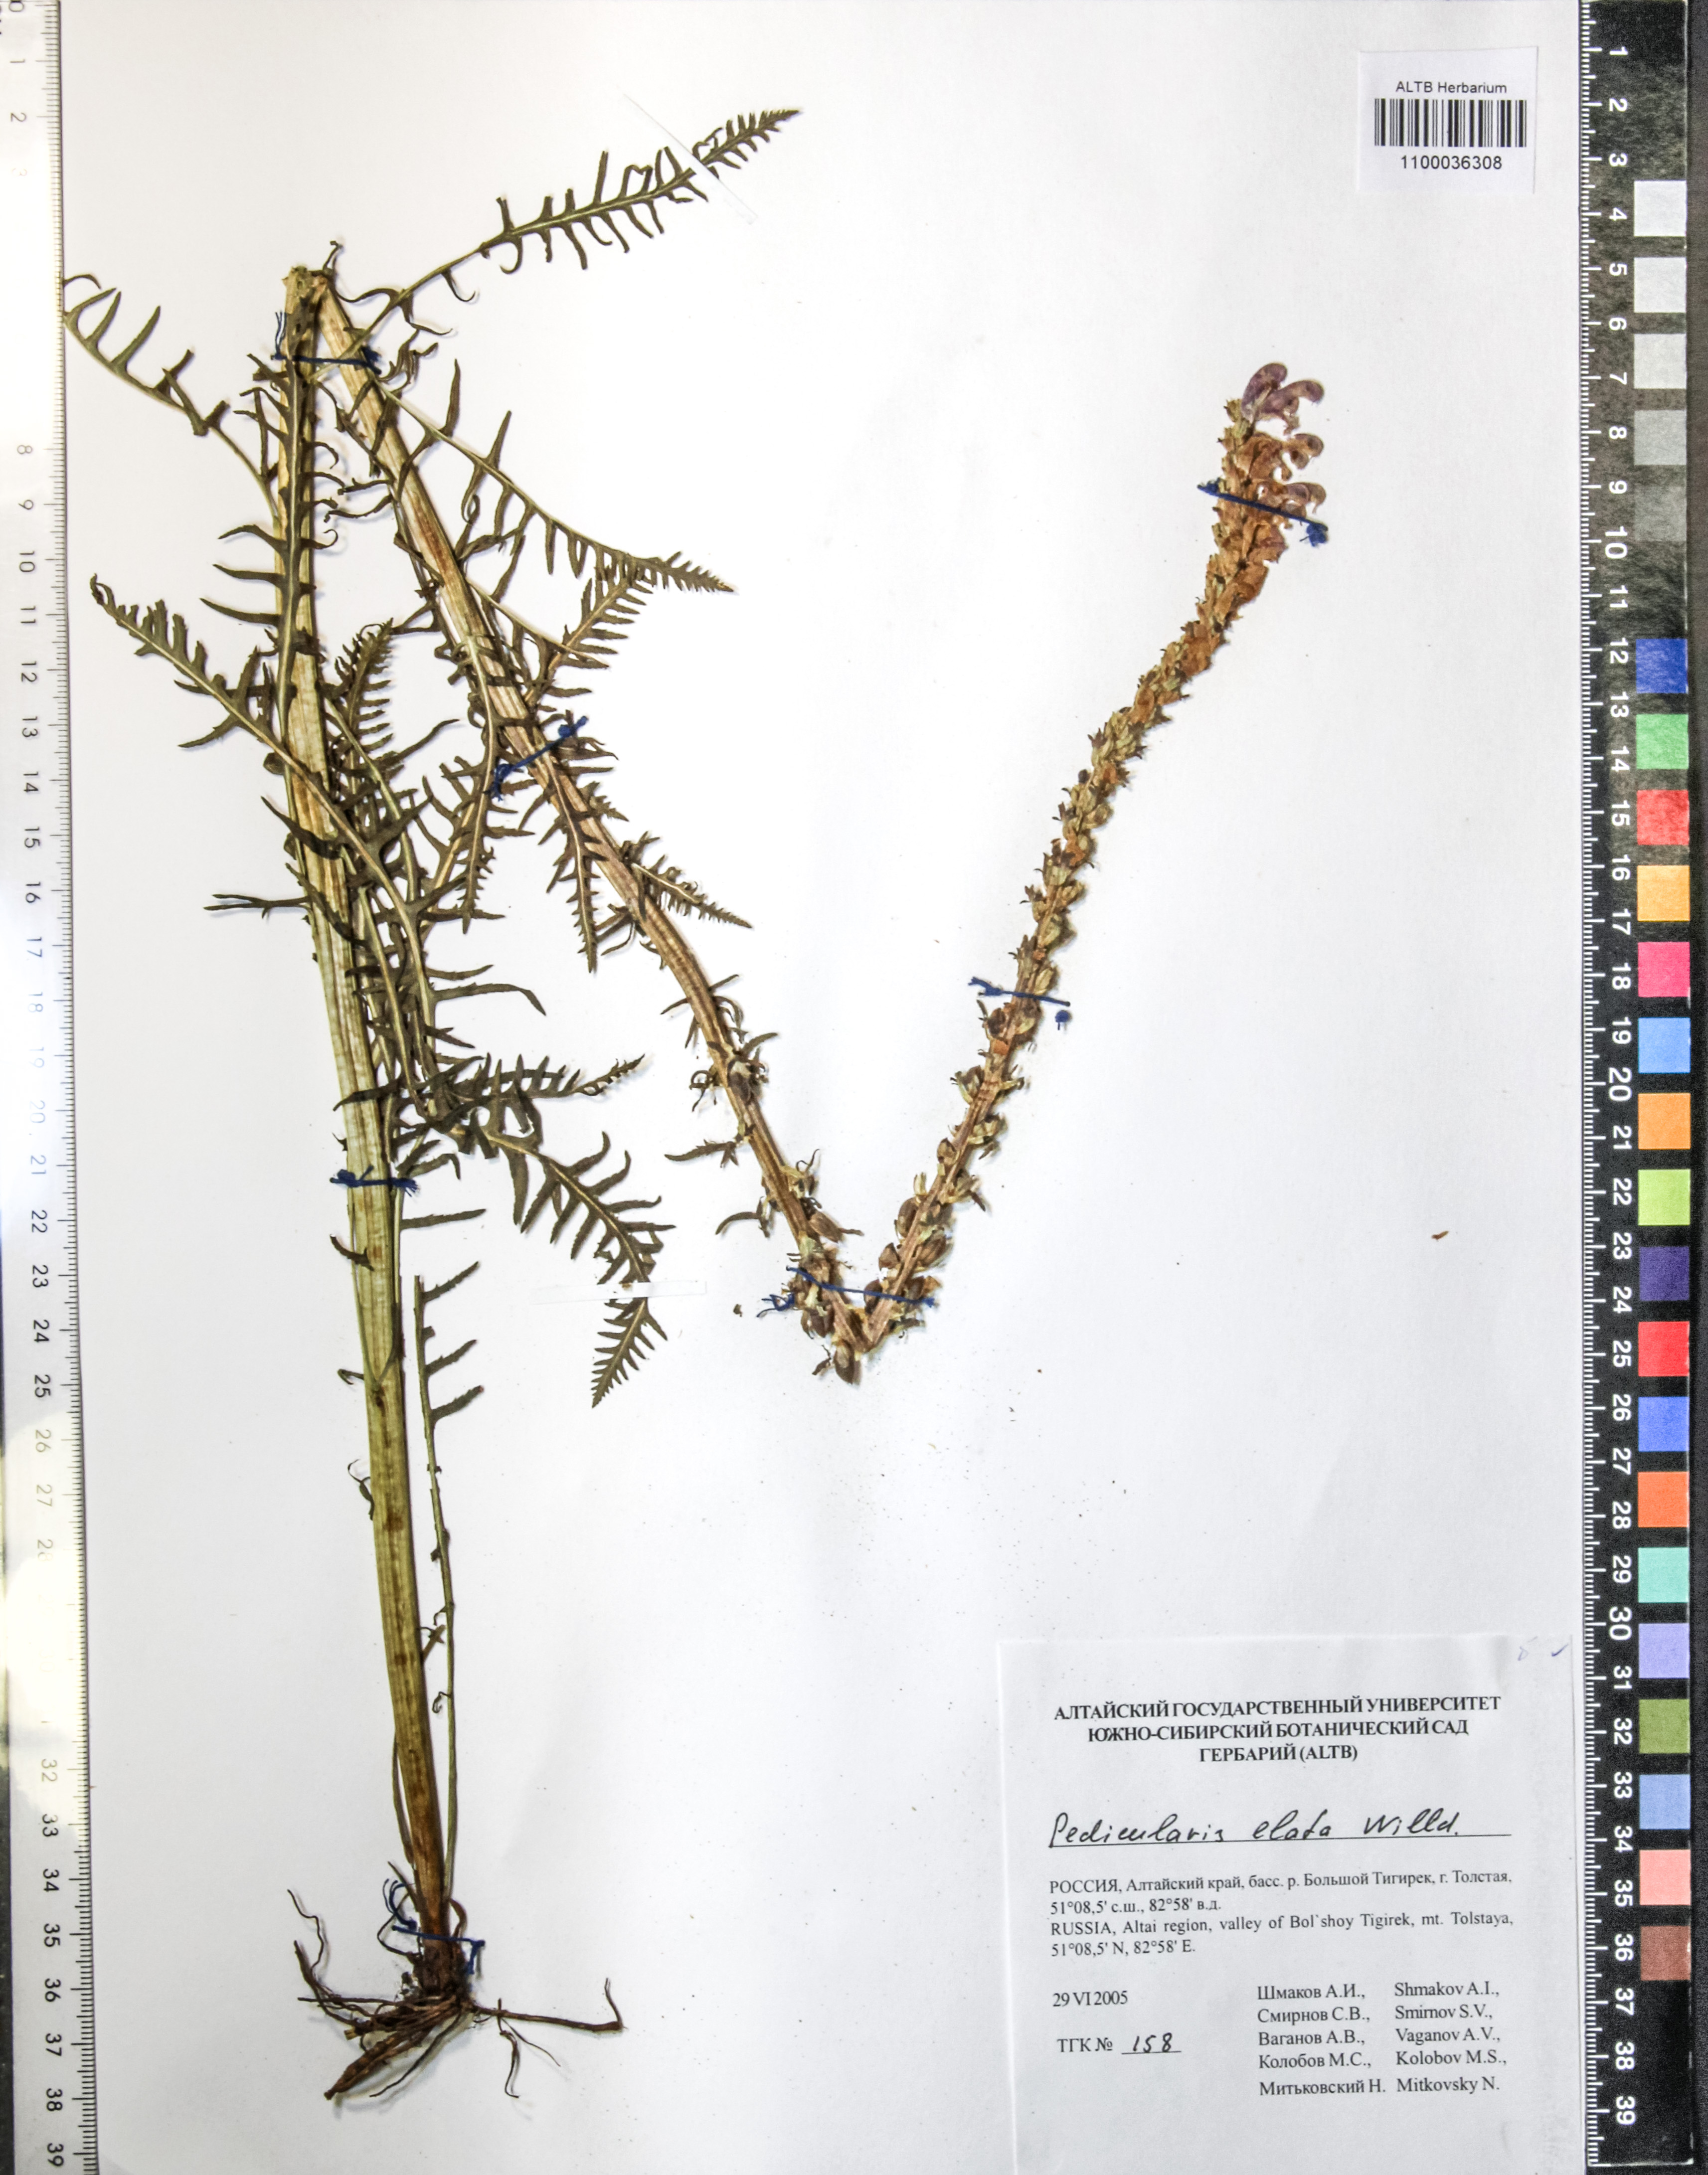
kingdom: Plantae
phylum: Tracheophyta
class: Magnoliopsida
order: Lamiales
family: Orobanchaceae
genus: Pedicularis
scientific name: Pedicularis elata
